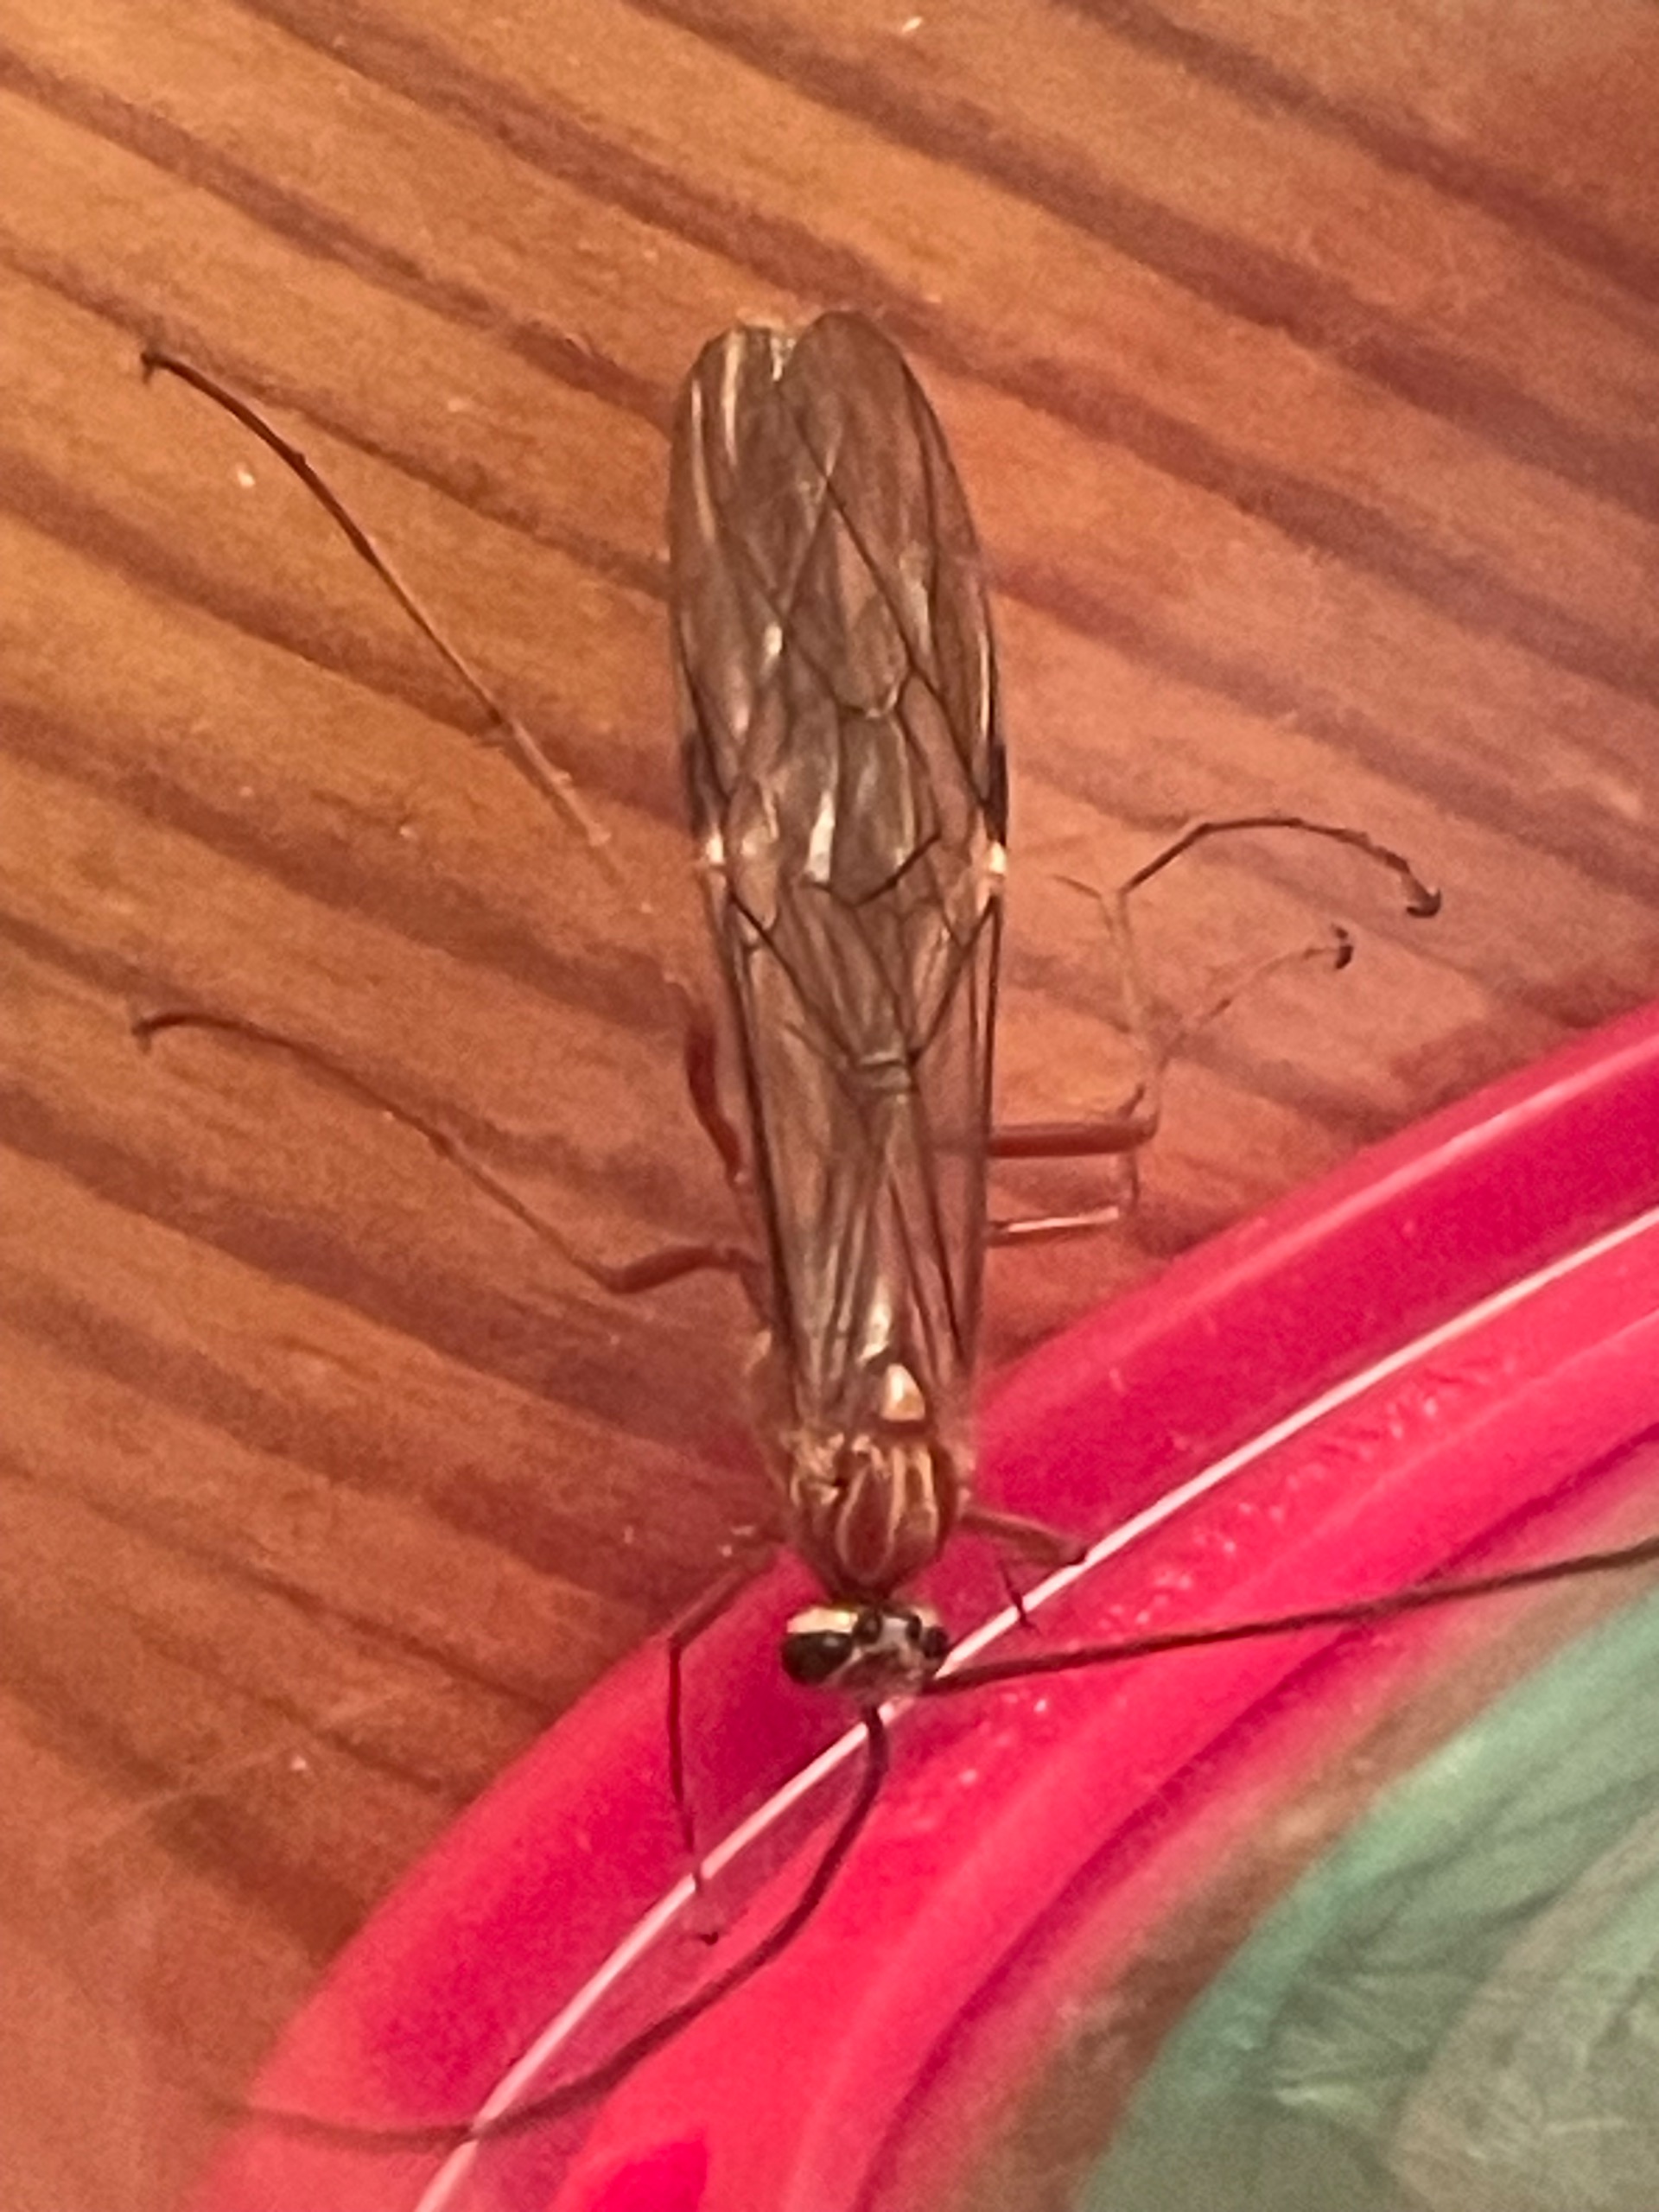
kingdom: Animalia
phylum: Arthropoda
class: Insecta
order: Hymenoptera
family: Ichneumonidae
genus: Ophion
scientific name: Ophion obscuratus
